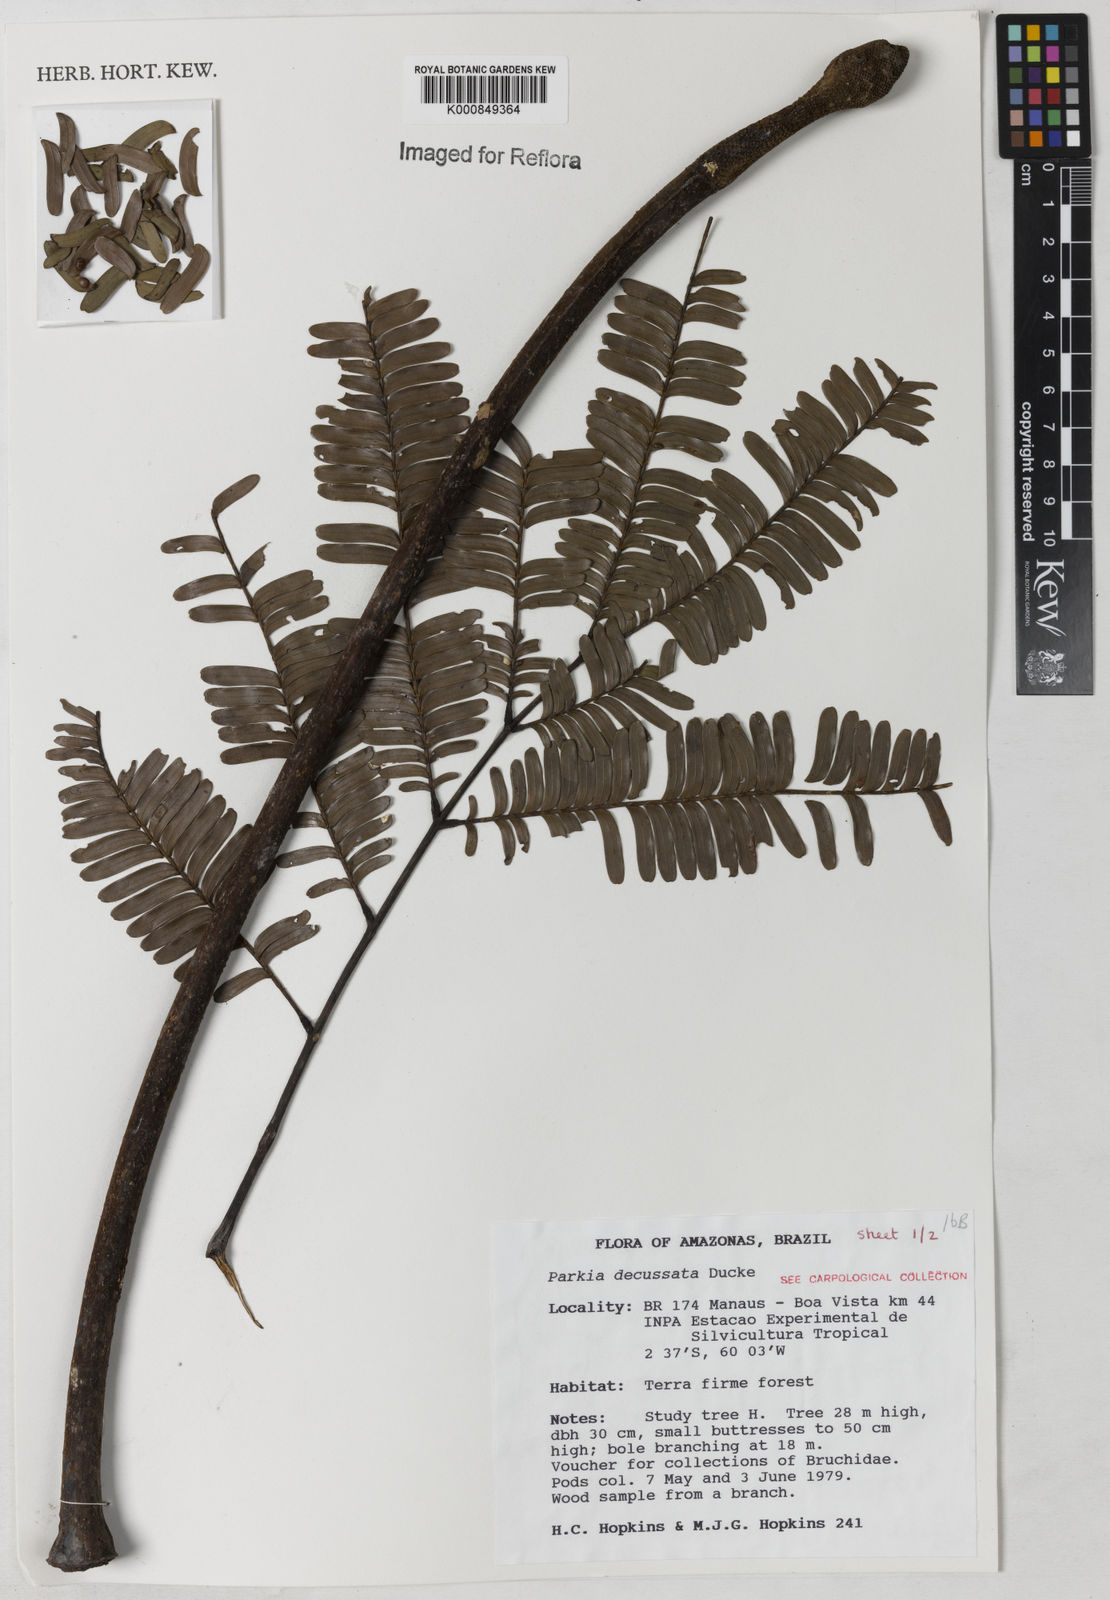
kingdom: Plantae
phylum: Tracheophyta
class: Magnoliopsida
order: Fabales
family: Fabaceae
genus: Parkia
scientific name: Parkia decussata
